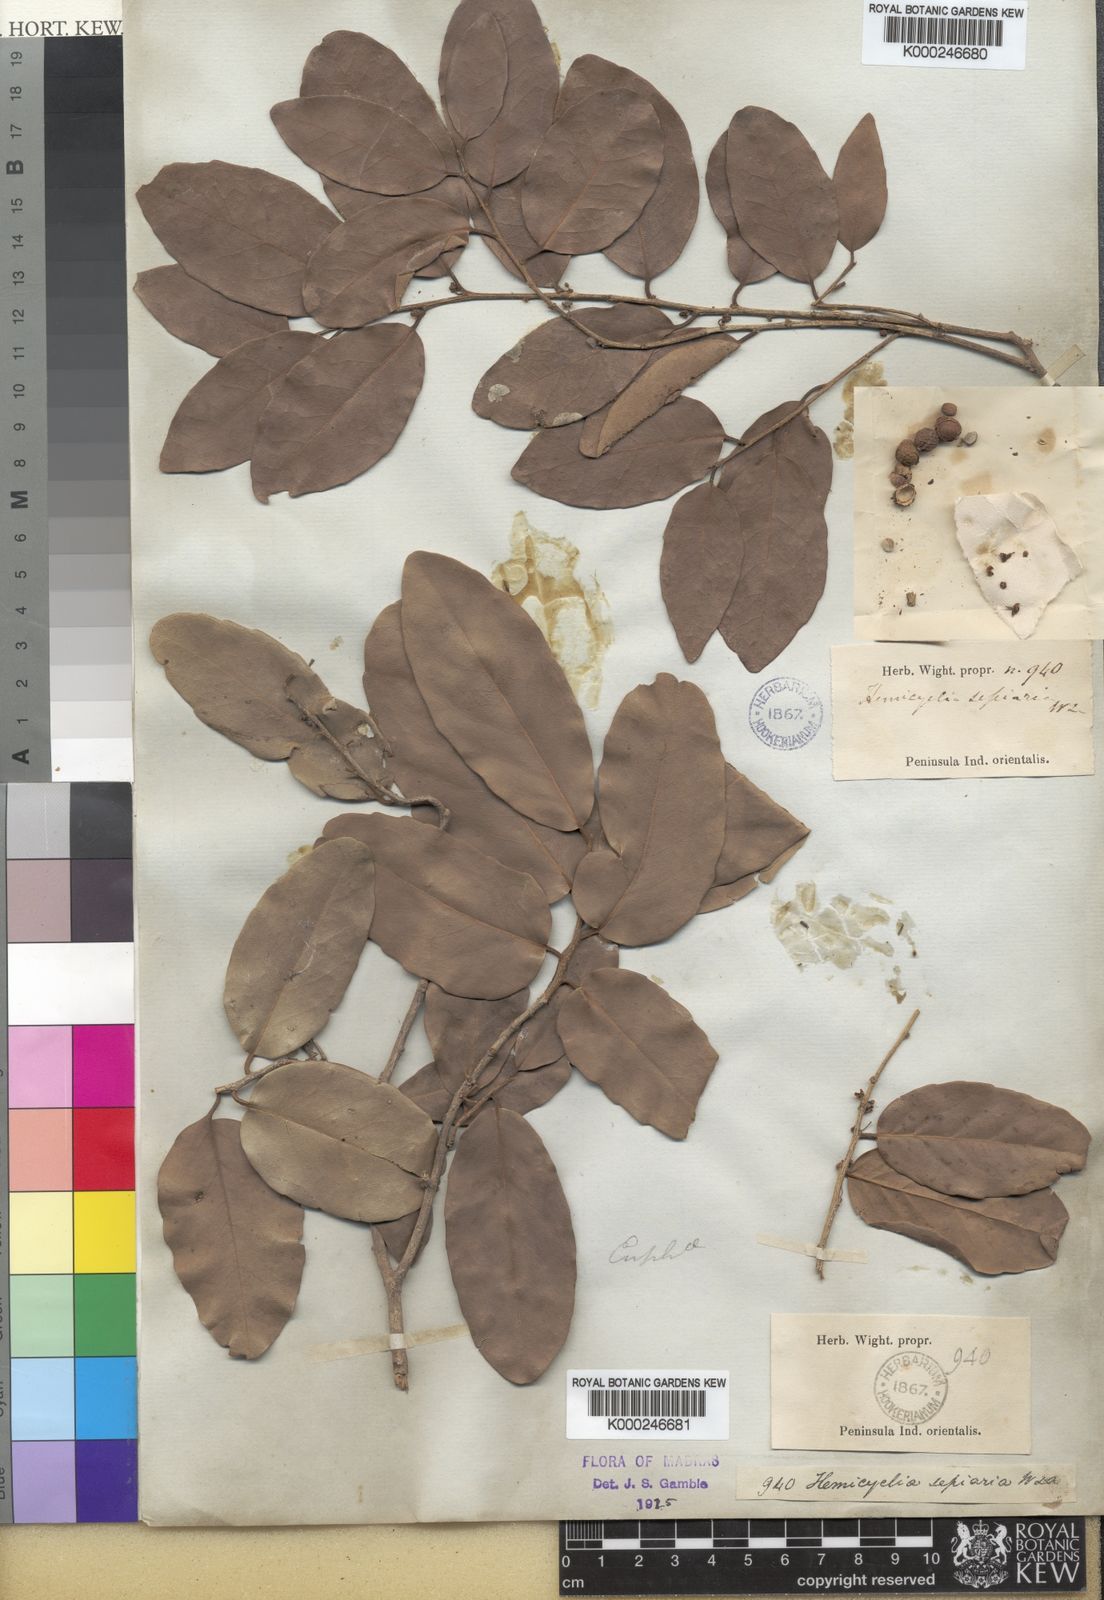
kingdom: Plantae
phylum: Tracheophyta
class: Magnoliopsida
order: Malpighiales
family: Putranjivaceae
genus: Drypetes
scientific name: Drypetes sepiaria
